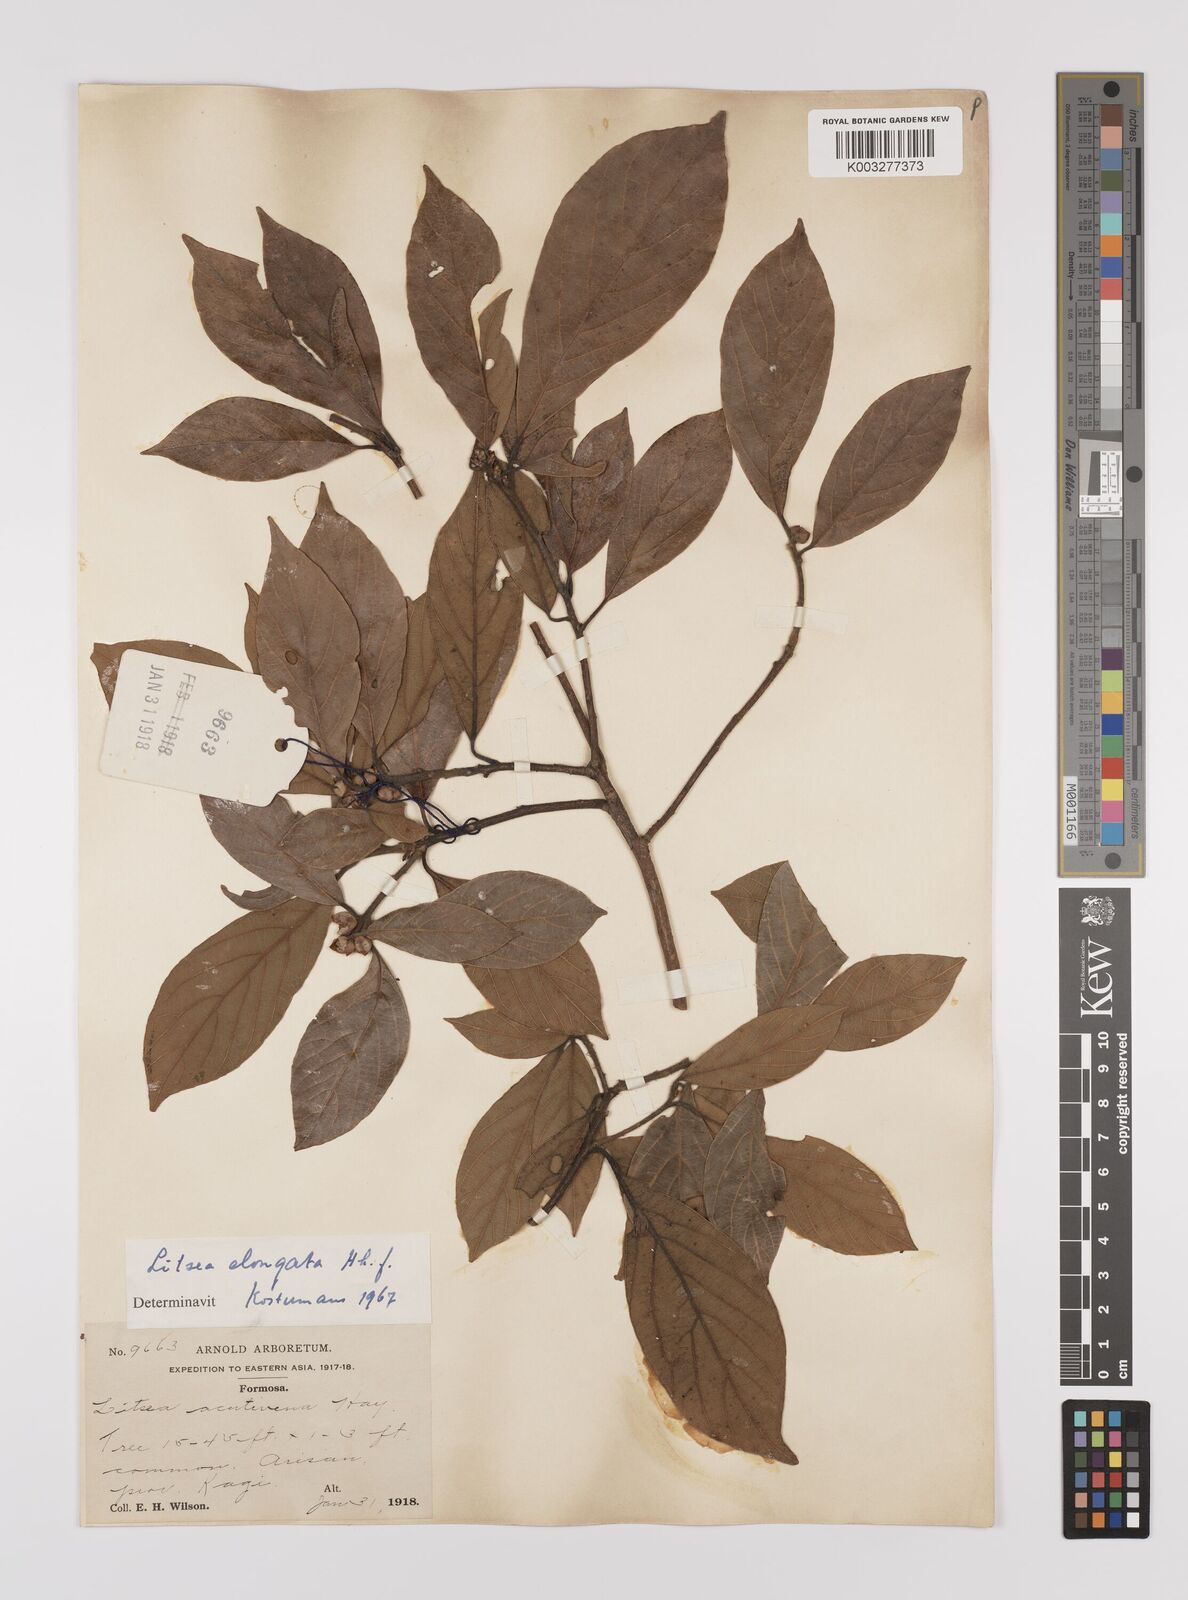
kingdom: Plantae
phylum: Tracheophyta
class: Magnoliopsida
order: Laurales
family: Lauraceae
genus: Litsea
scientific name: Litsea elongata
